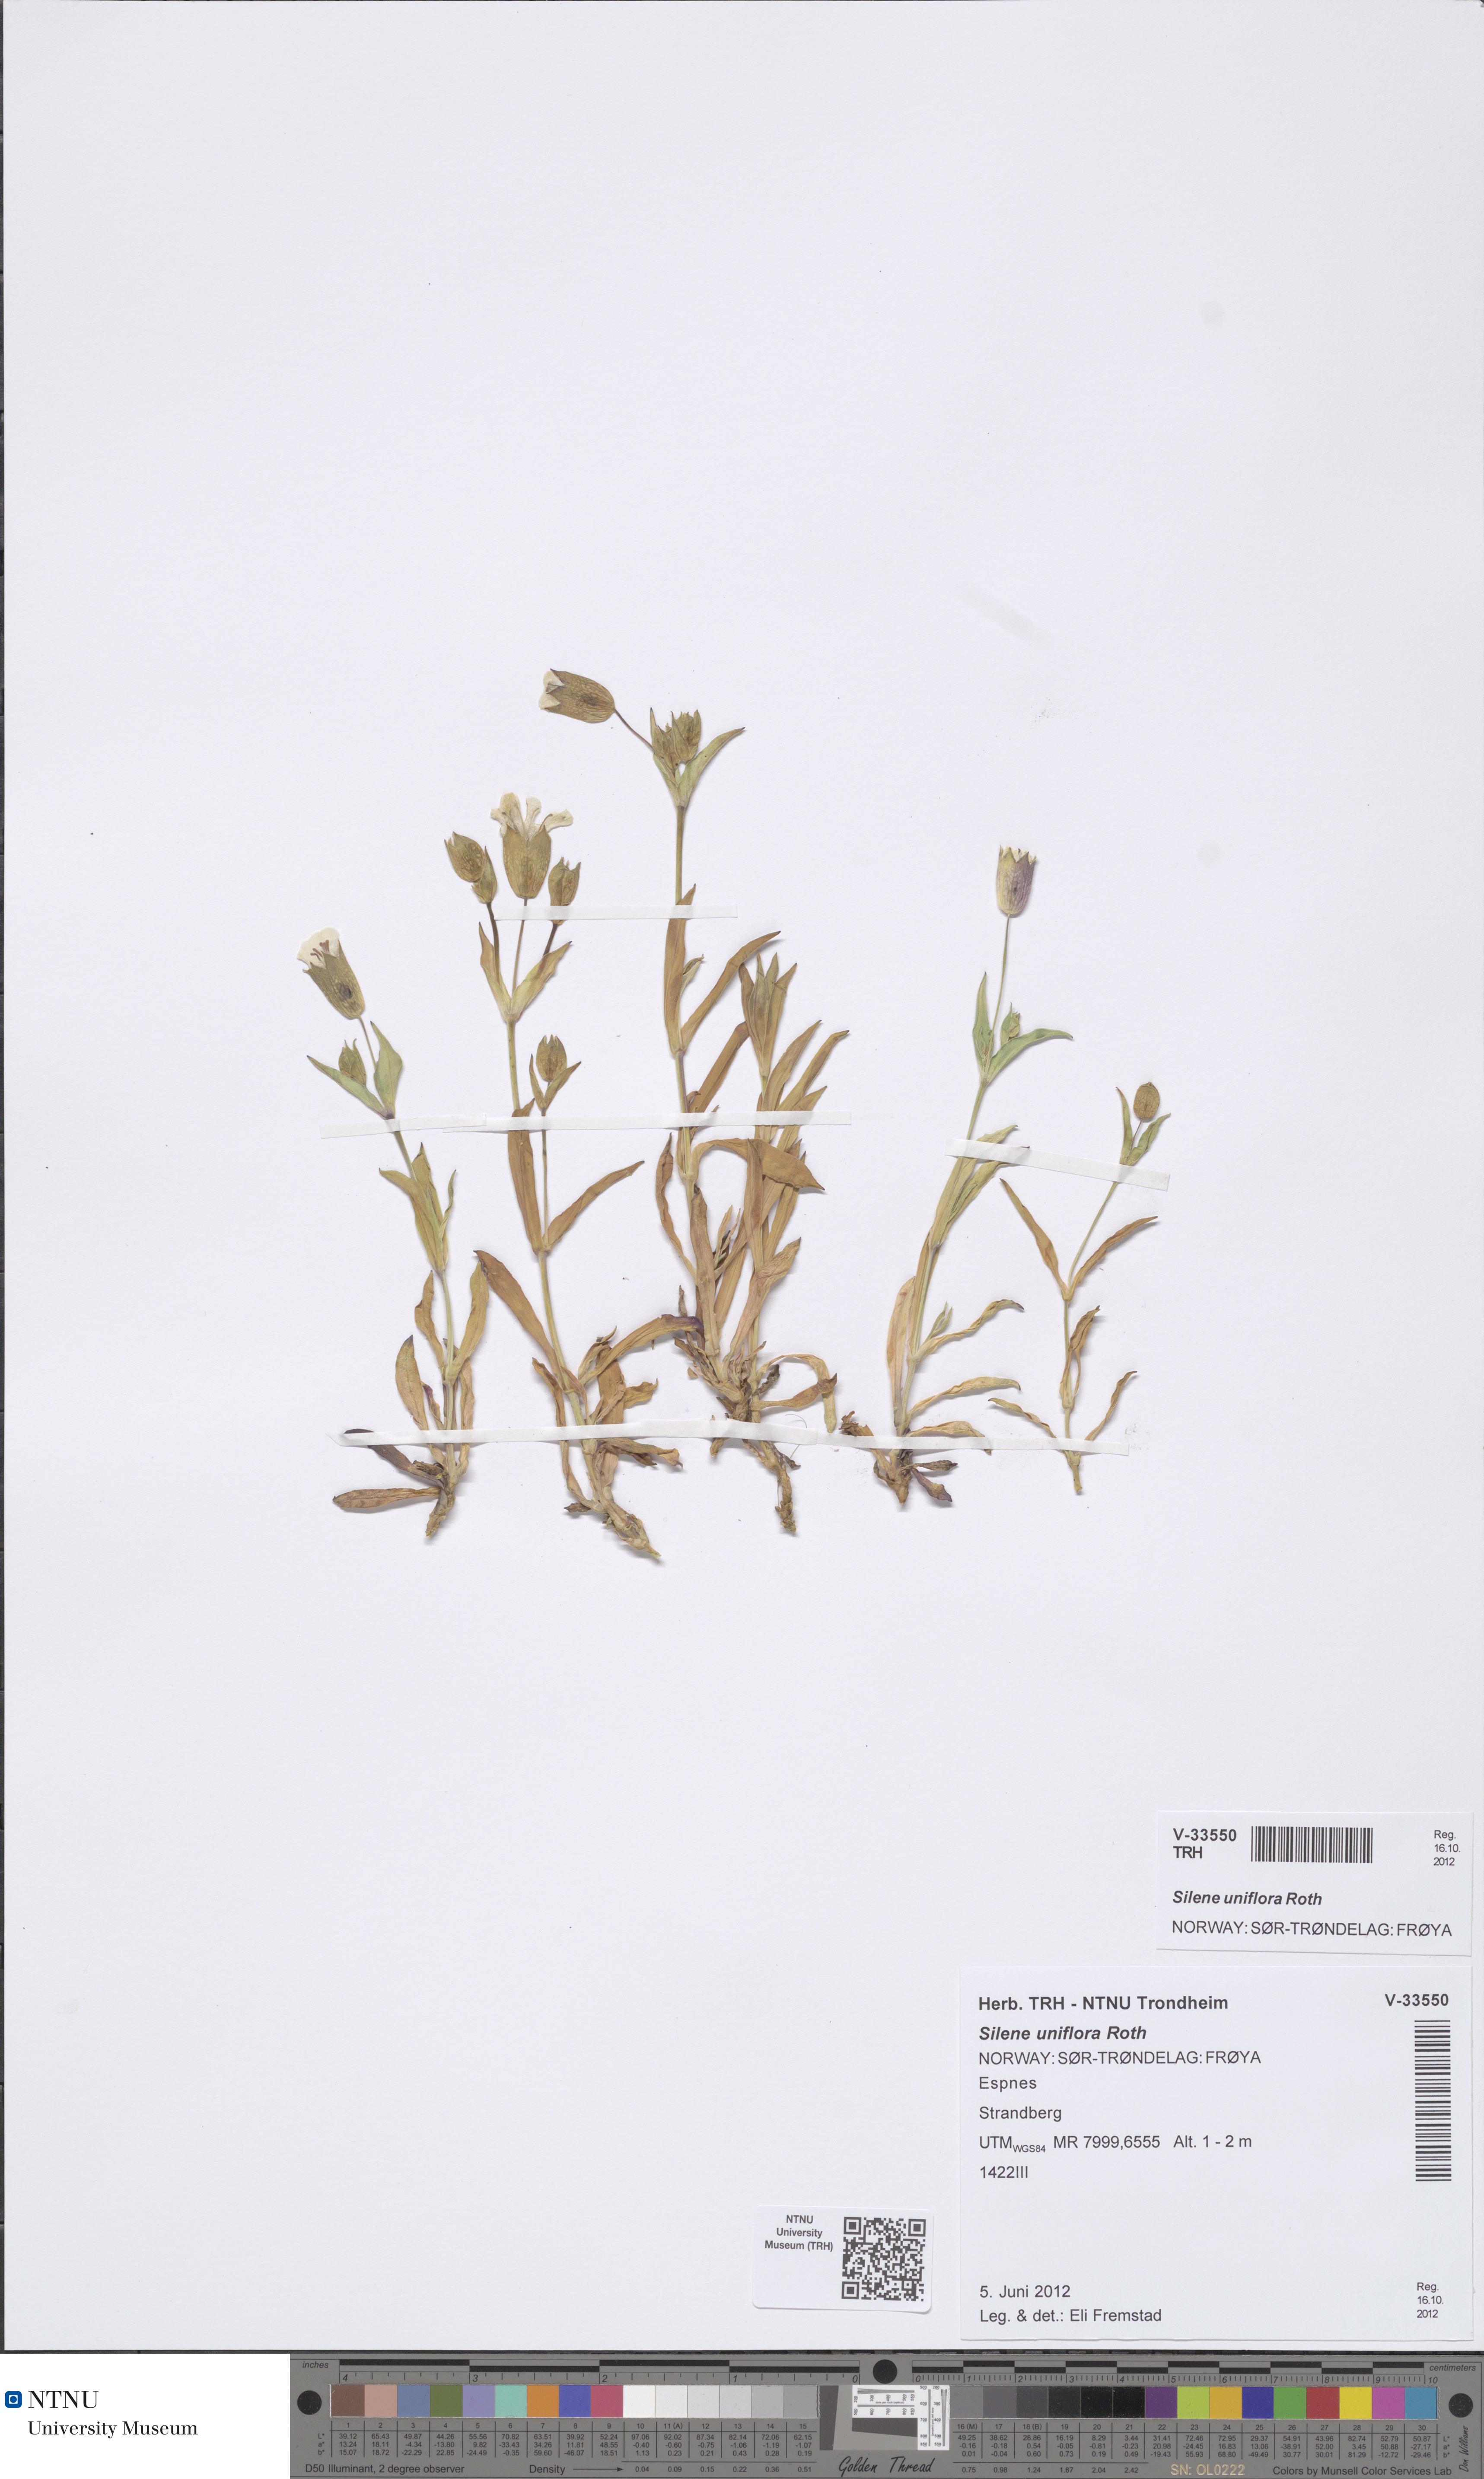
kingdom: Plantae
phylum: Tracheophyta
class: Magnoliopsida
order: Caryophyllales
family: Caryophyllaceae
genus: Silene
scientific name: Silene uniflora
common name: Sea campion
